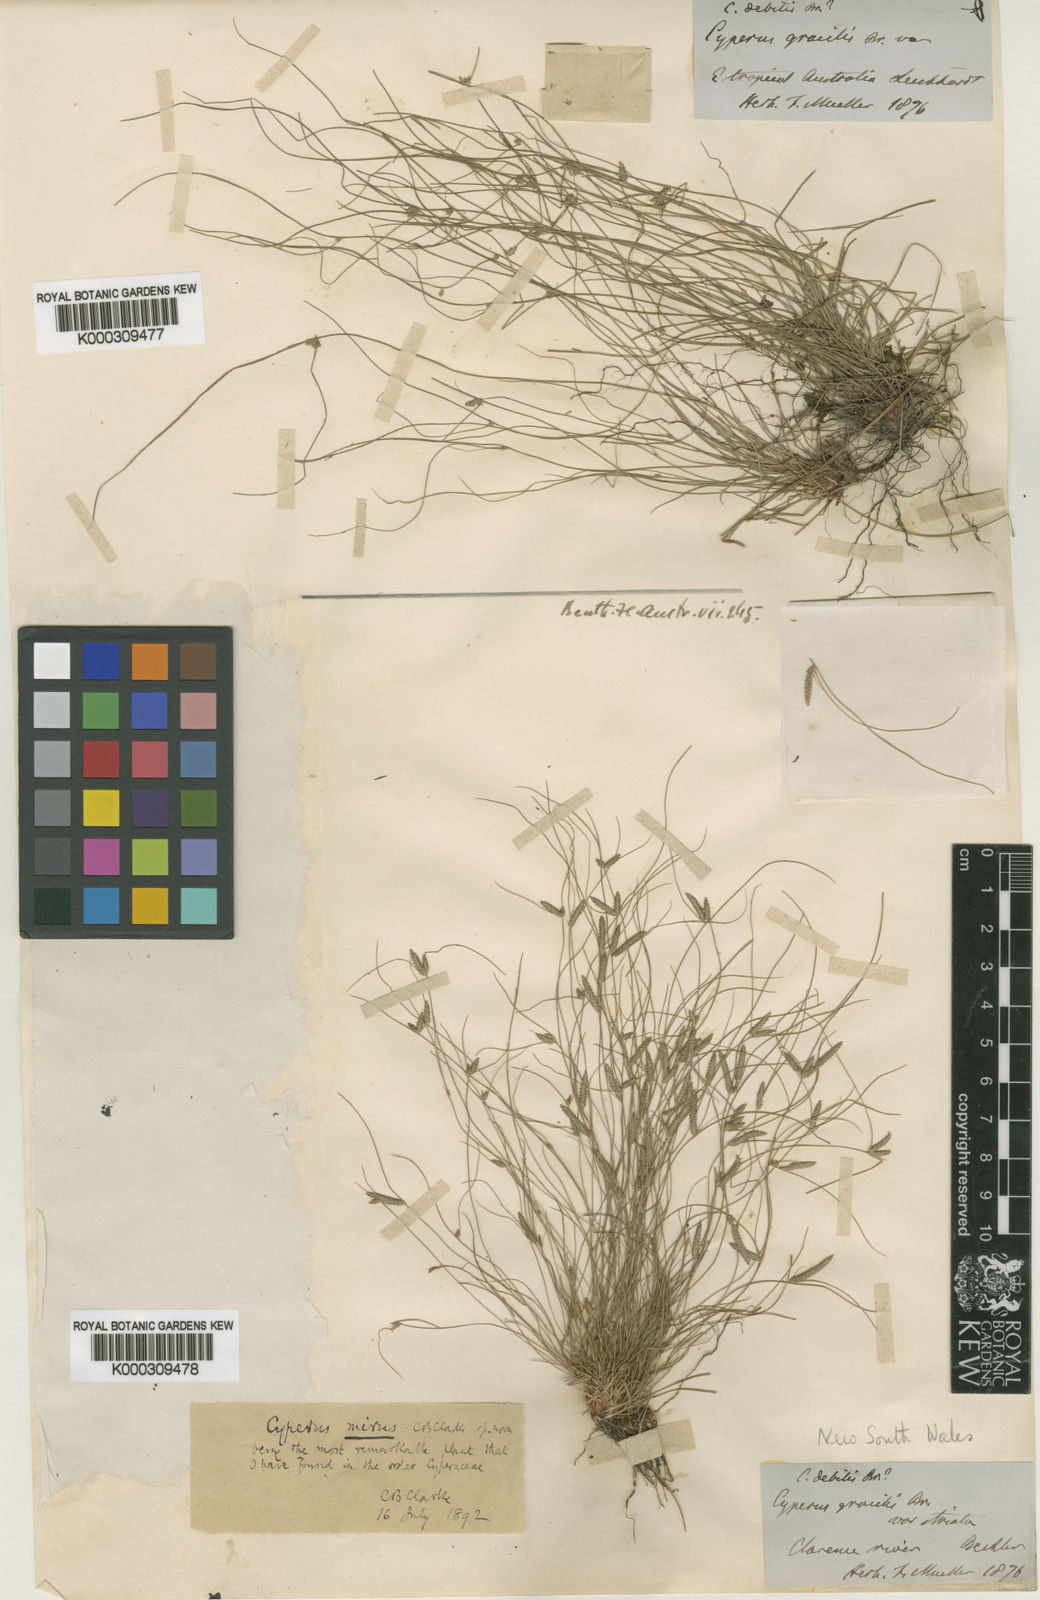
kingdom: Plantae
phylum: Tracheophyta
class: Liliopsida
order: Poales
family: Cyperaceae
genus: Cyperus
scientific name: Cyperus mirus
